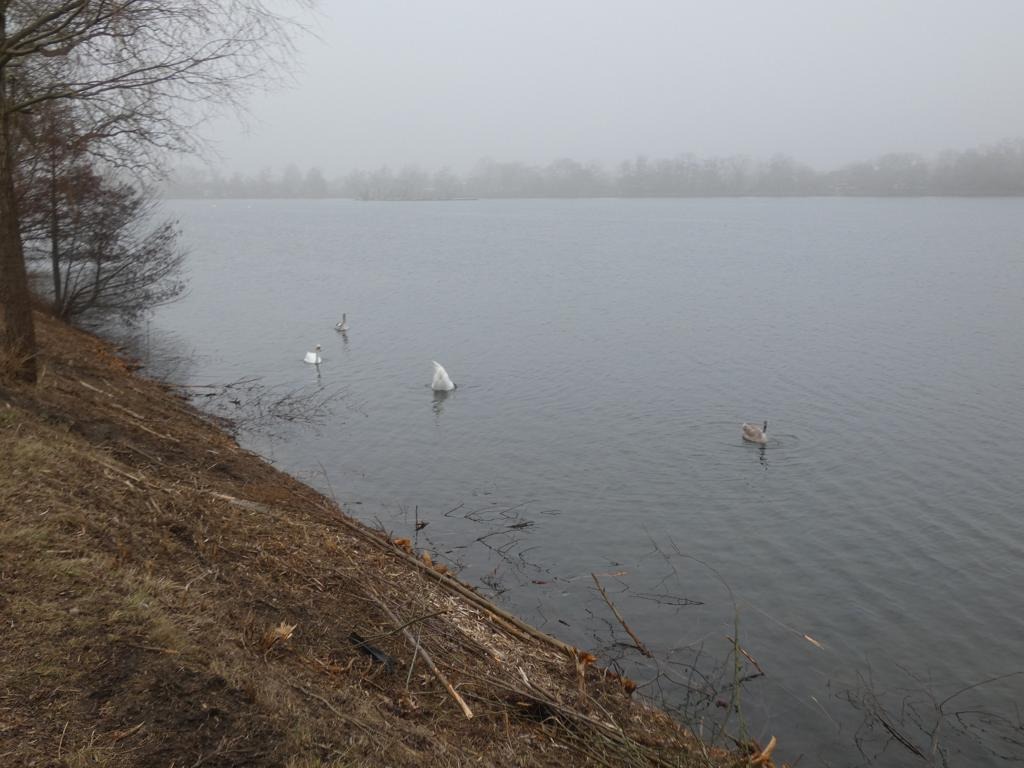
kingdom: Animalia
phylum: Chordata
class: Aves
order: Anseriformes
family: Anatidae
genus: Cygnus
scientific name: Cygnus olor
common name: Knopsvane
